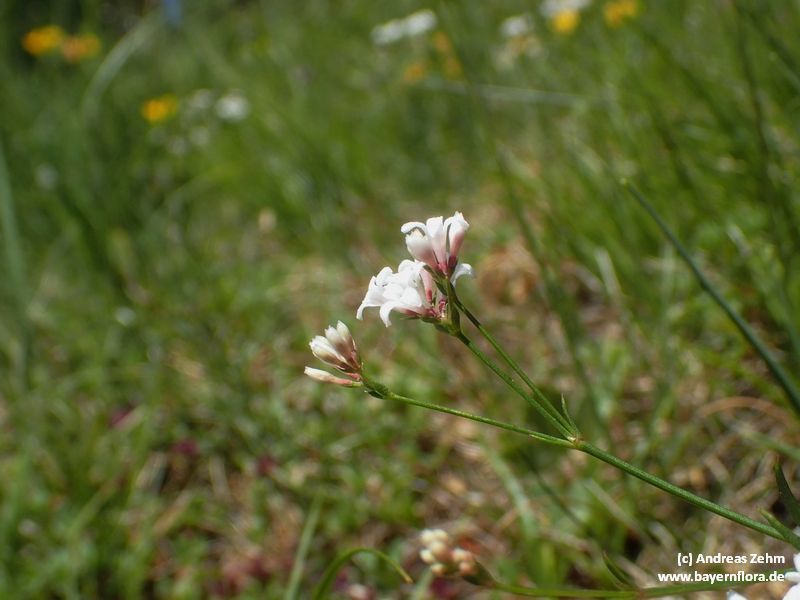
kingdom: Plantae
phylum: Tracheophyta
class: Magnoliopsida
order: Gentianales
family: Rubiaceae
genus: Cynanchica
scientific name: Cynanchica pyrenaica
